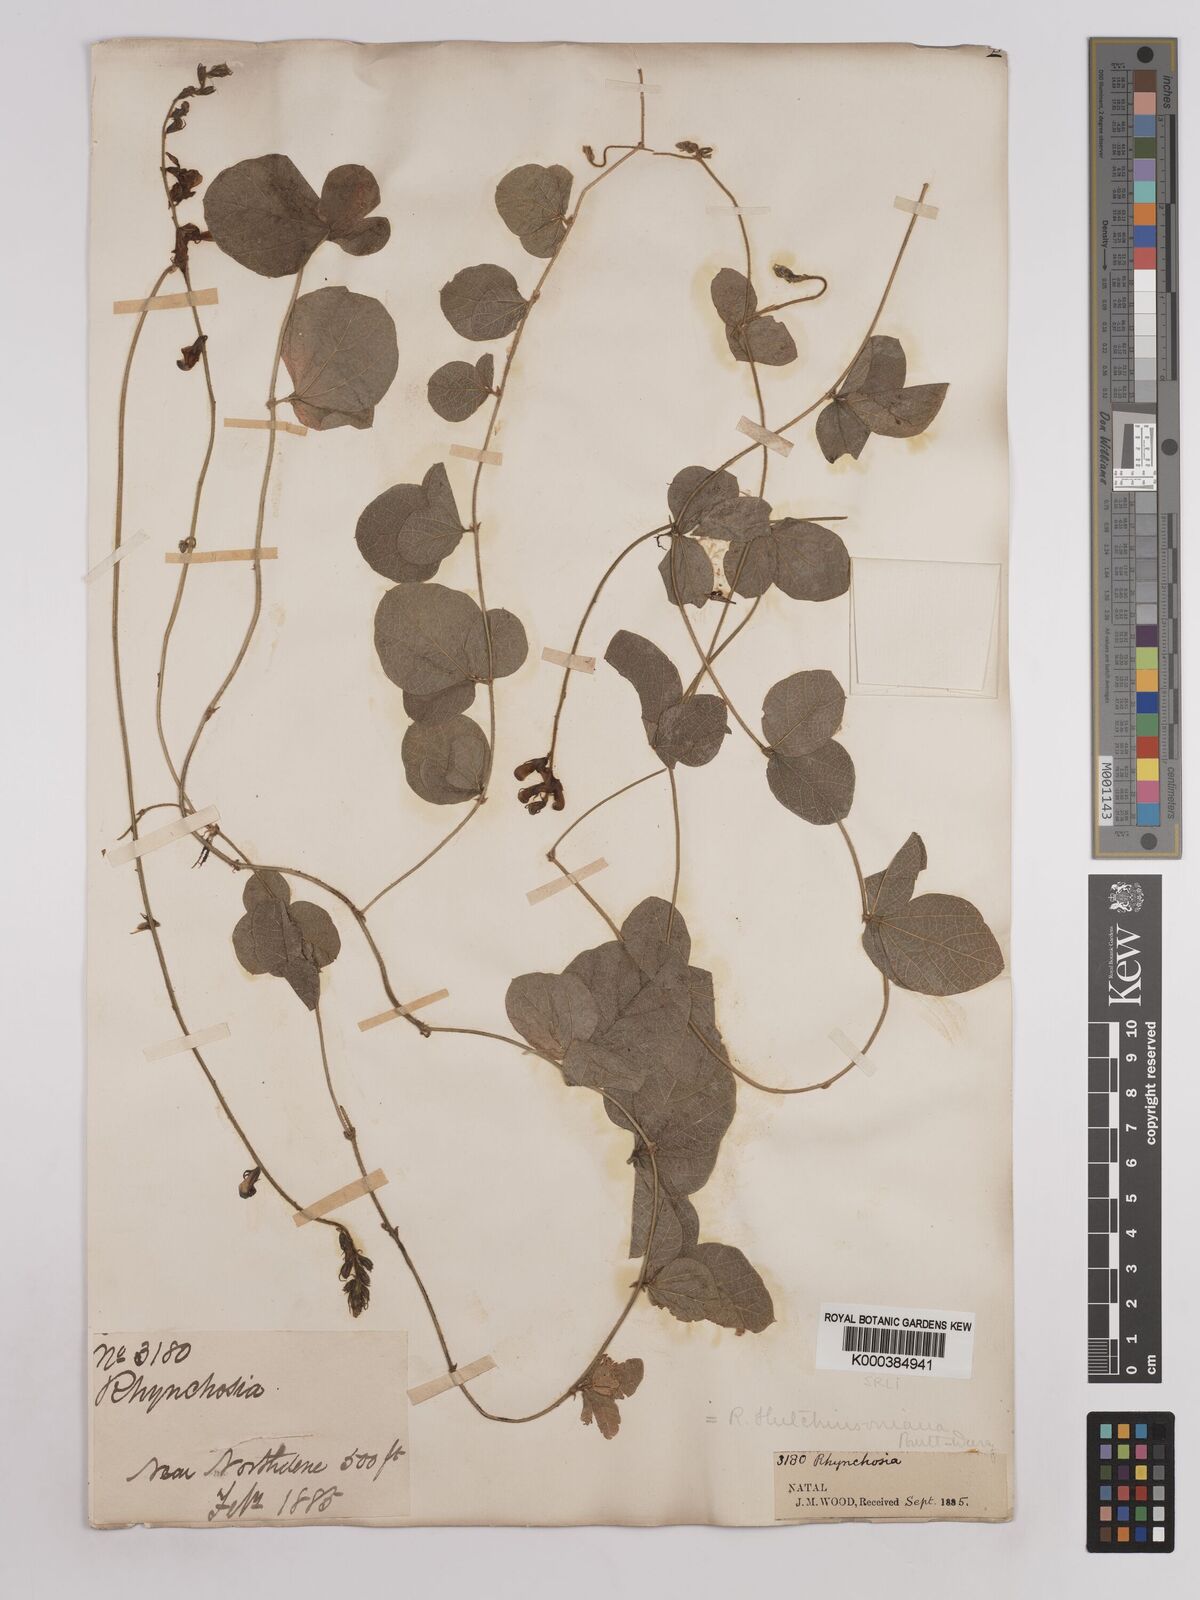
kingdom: Plantae
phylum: Tracheophyta
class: Magnoliopsida
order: Fabales
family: Fabaceae
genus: Rhynchosia
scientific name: Rhynchosia pentheri
